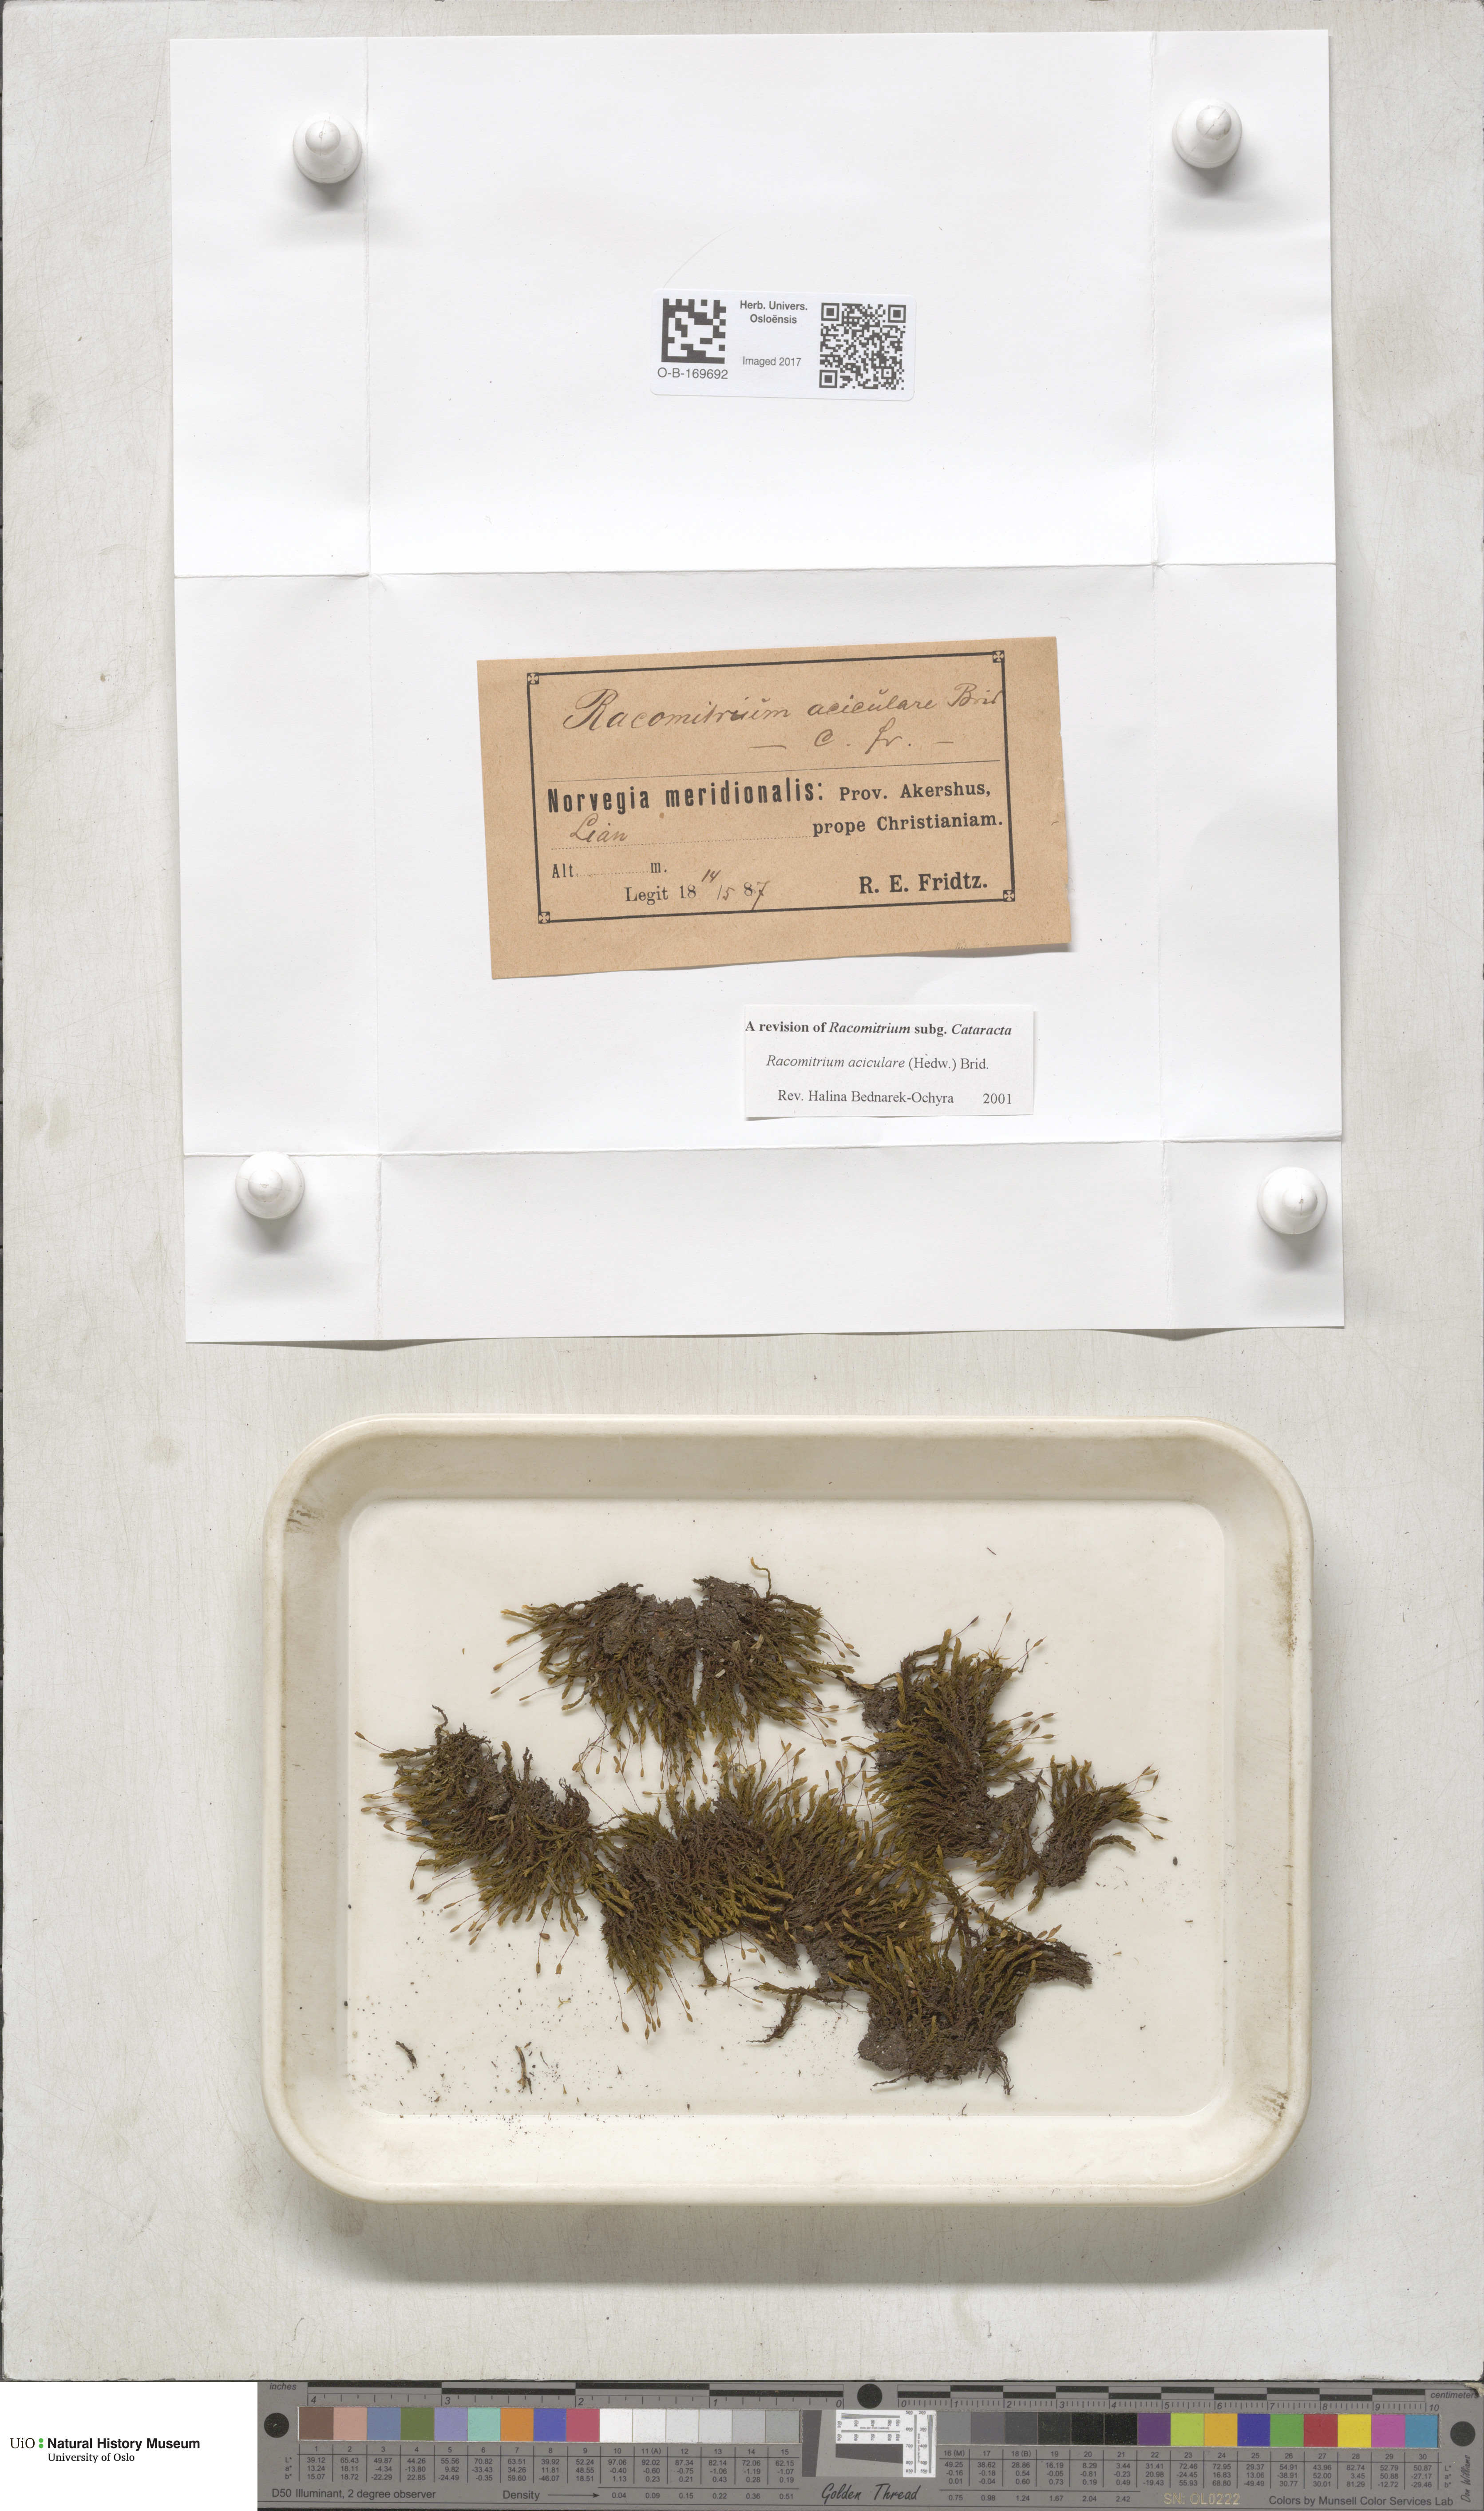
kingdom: Plantae
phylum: Bryophyta
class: Bryopsida
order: Grimmiales
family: Grimmiaceae
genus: Codriophorus
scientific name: Codriophorus acicularis
